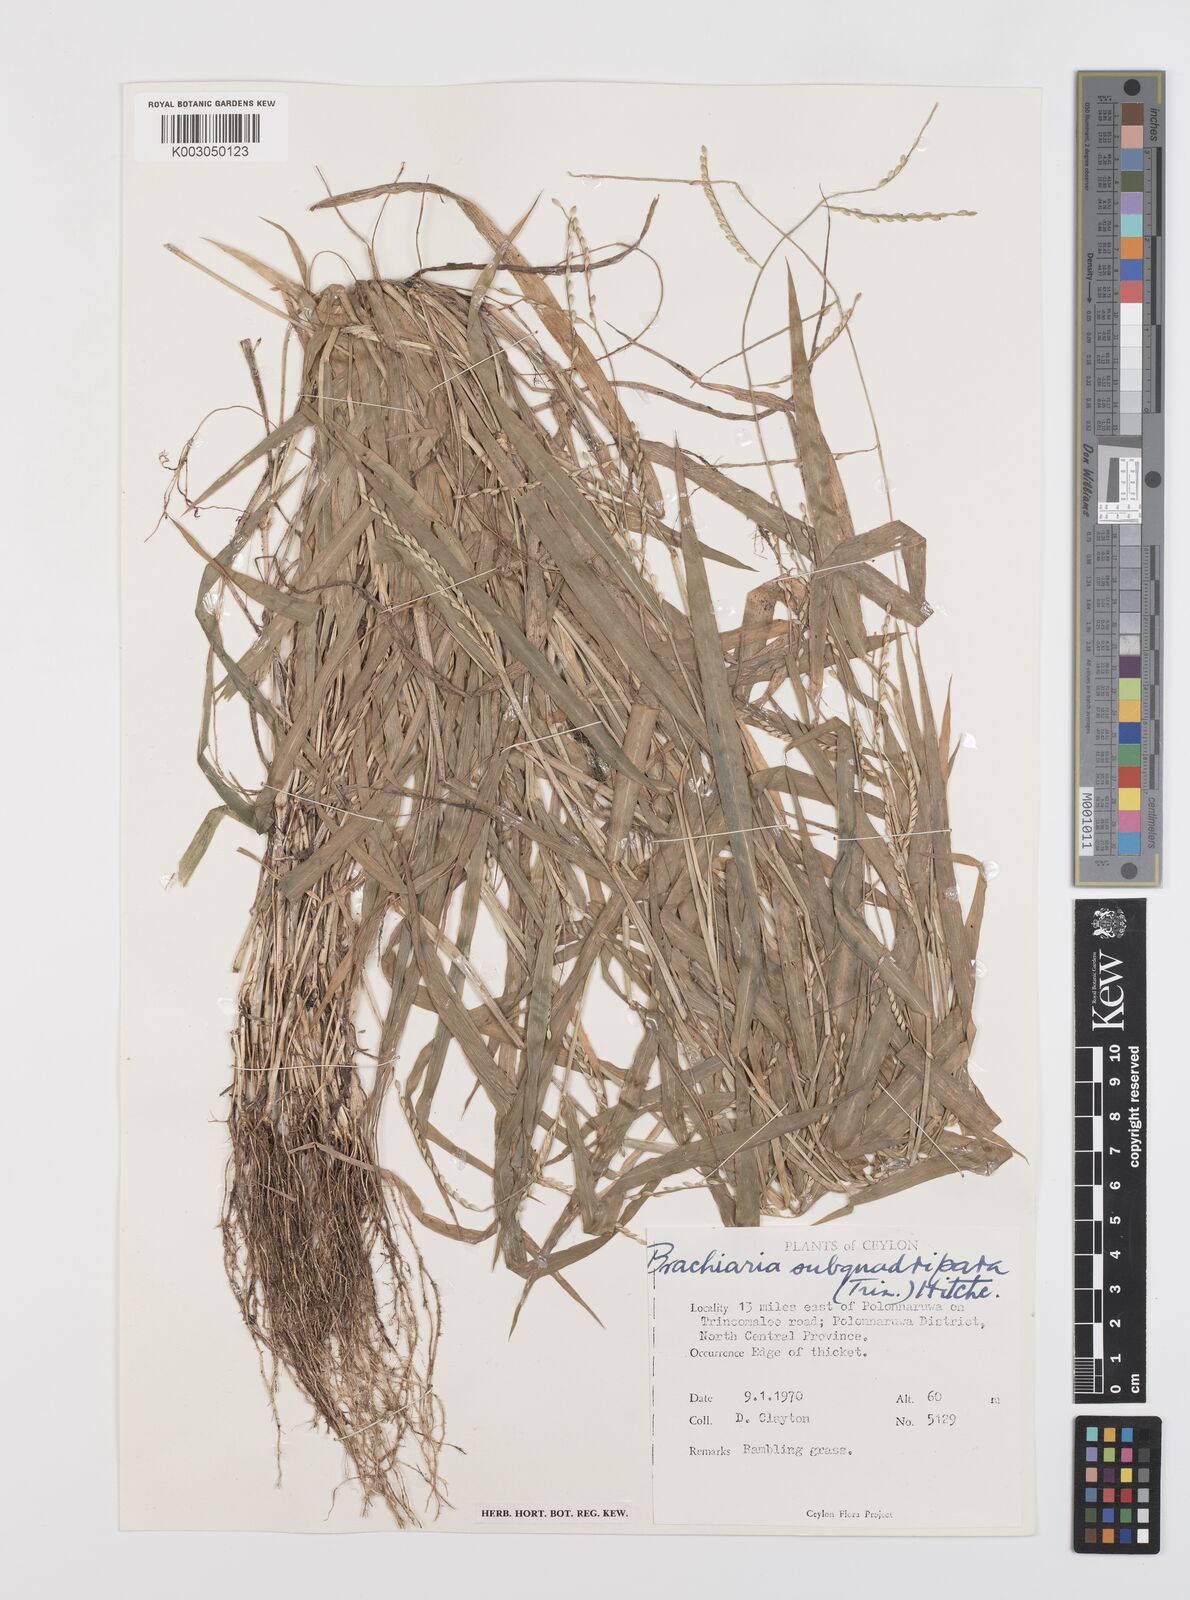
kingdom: Plantae
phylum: Tracheophyta
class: Liliopsida
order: Poales
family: Poaceae
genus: Urochloa
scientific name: Urochloa subquadripara
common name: Armgrass millet
